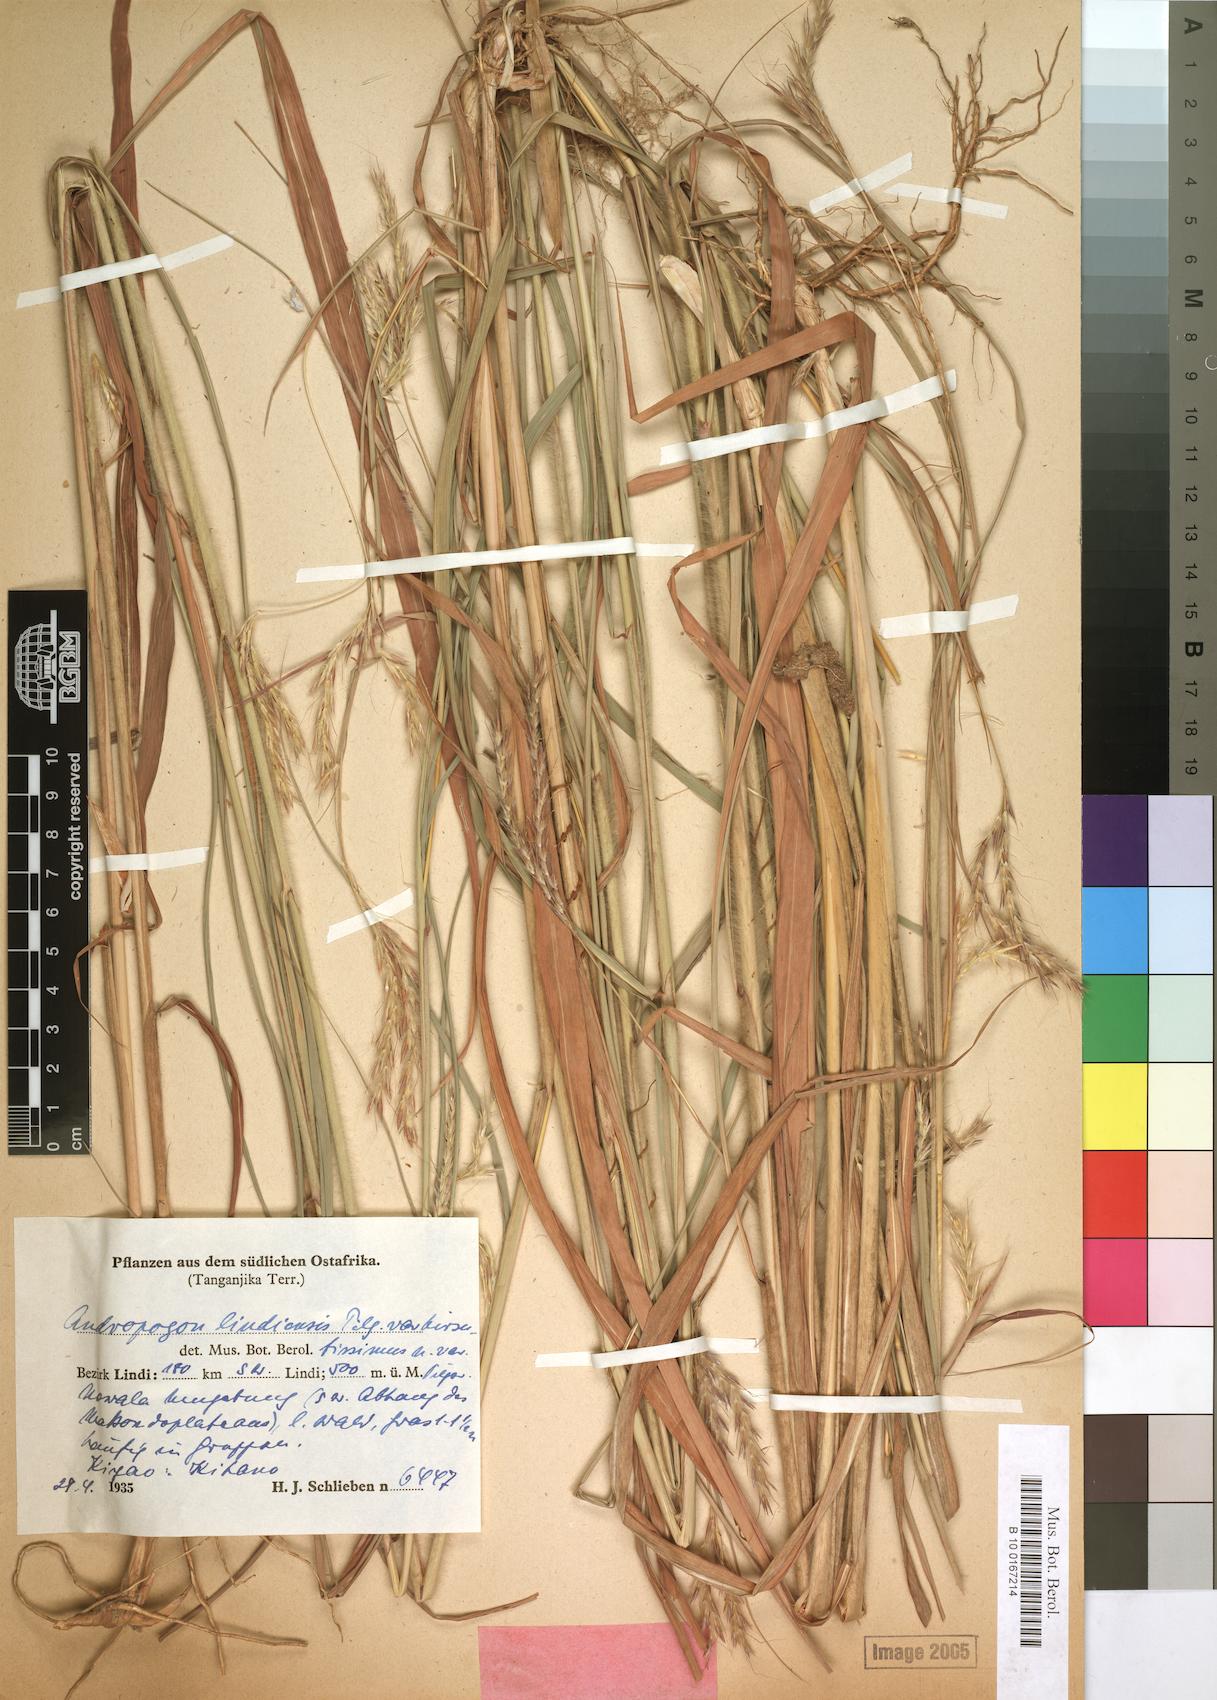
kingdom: Plantae
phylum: Tracheophyta
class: Liliopsida
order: Poales
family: Poaceae
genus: Andropogon
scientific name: Andropogon chinensis
